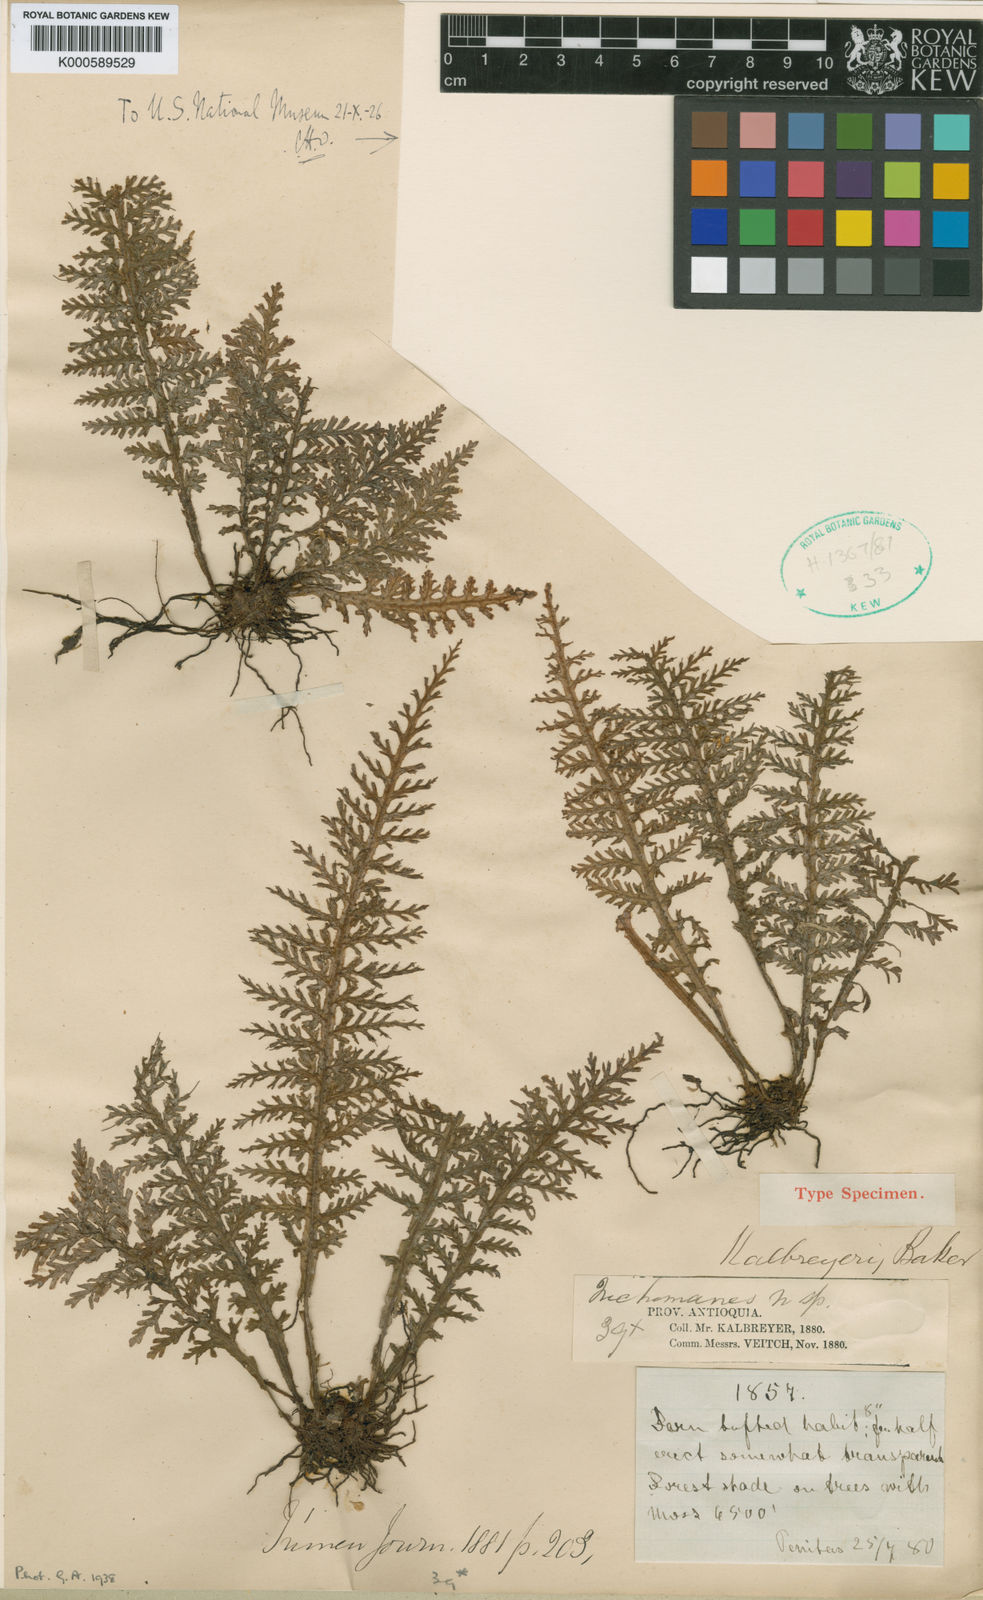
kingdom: Plantae
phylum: Tracheophyta
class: Polypodiopsida
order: Hymenophyllales
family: Hymenophyllaceae
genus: Trichomanes
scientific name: Trichomanes kalbreyeri
